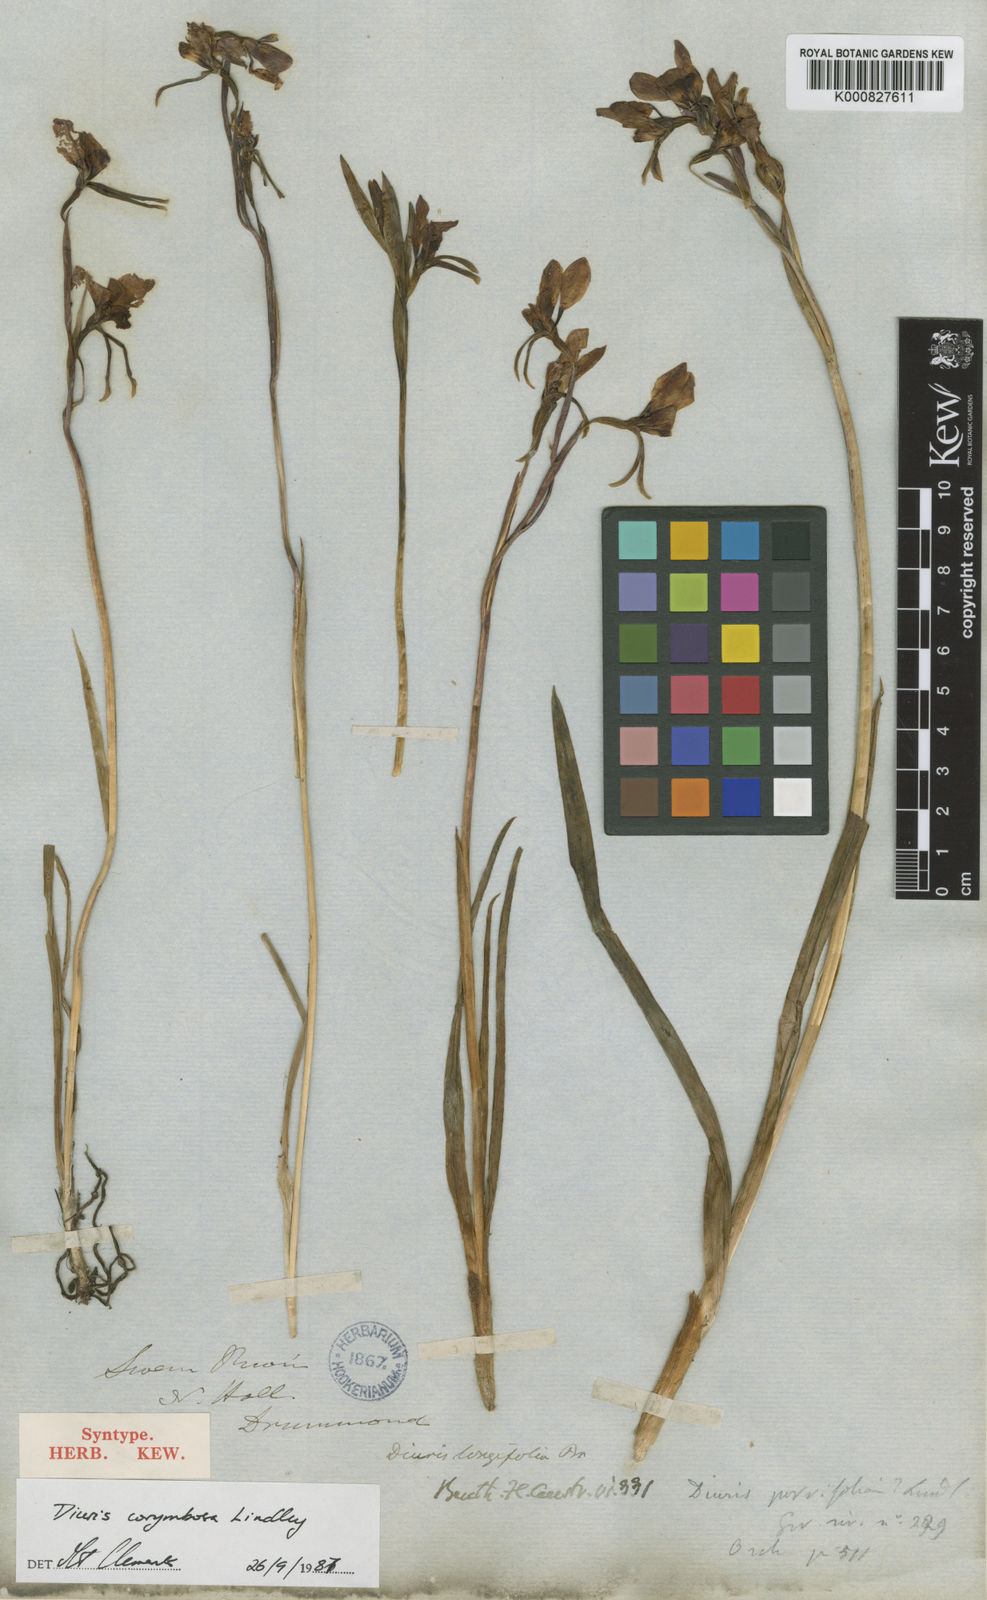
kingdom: Plantae
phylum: Tracheophyta
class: Liliopsida
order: Asparagales
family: Orchidaceae
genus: Diuris
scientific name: Diuris longifolia
